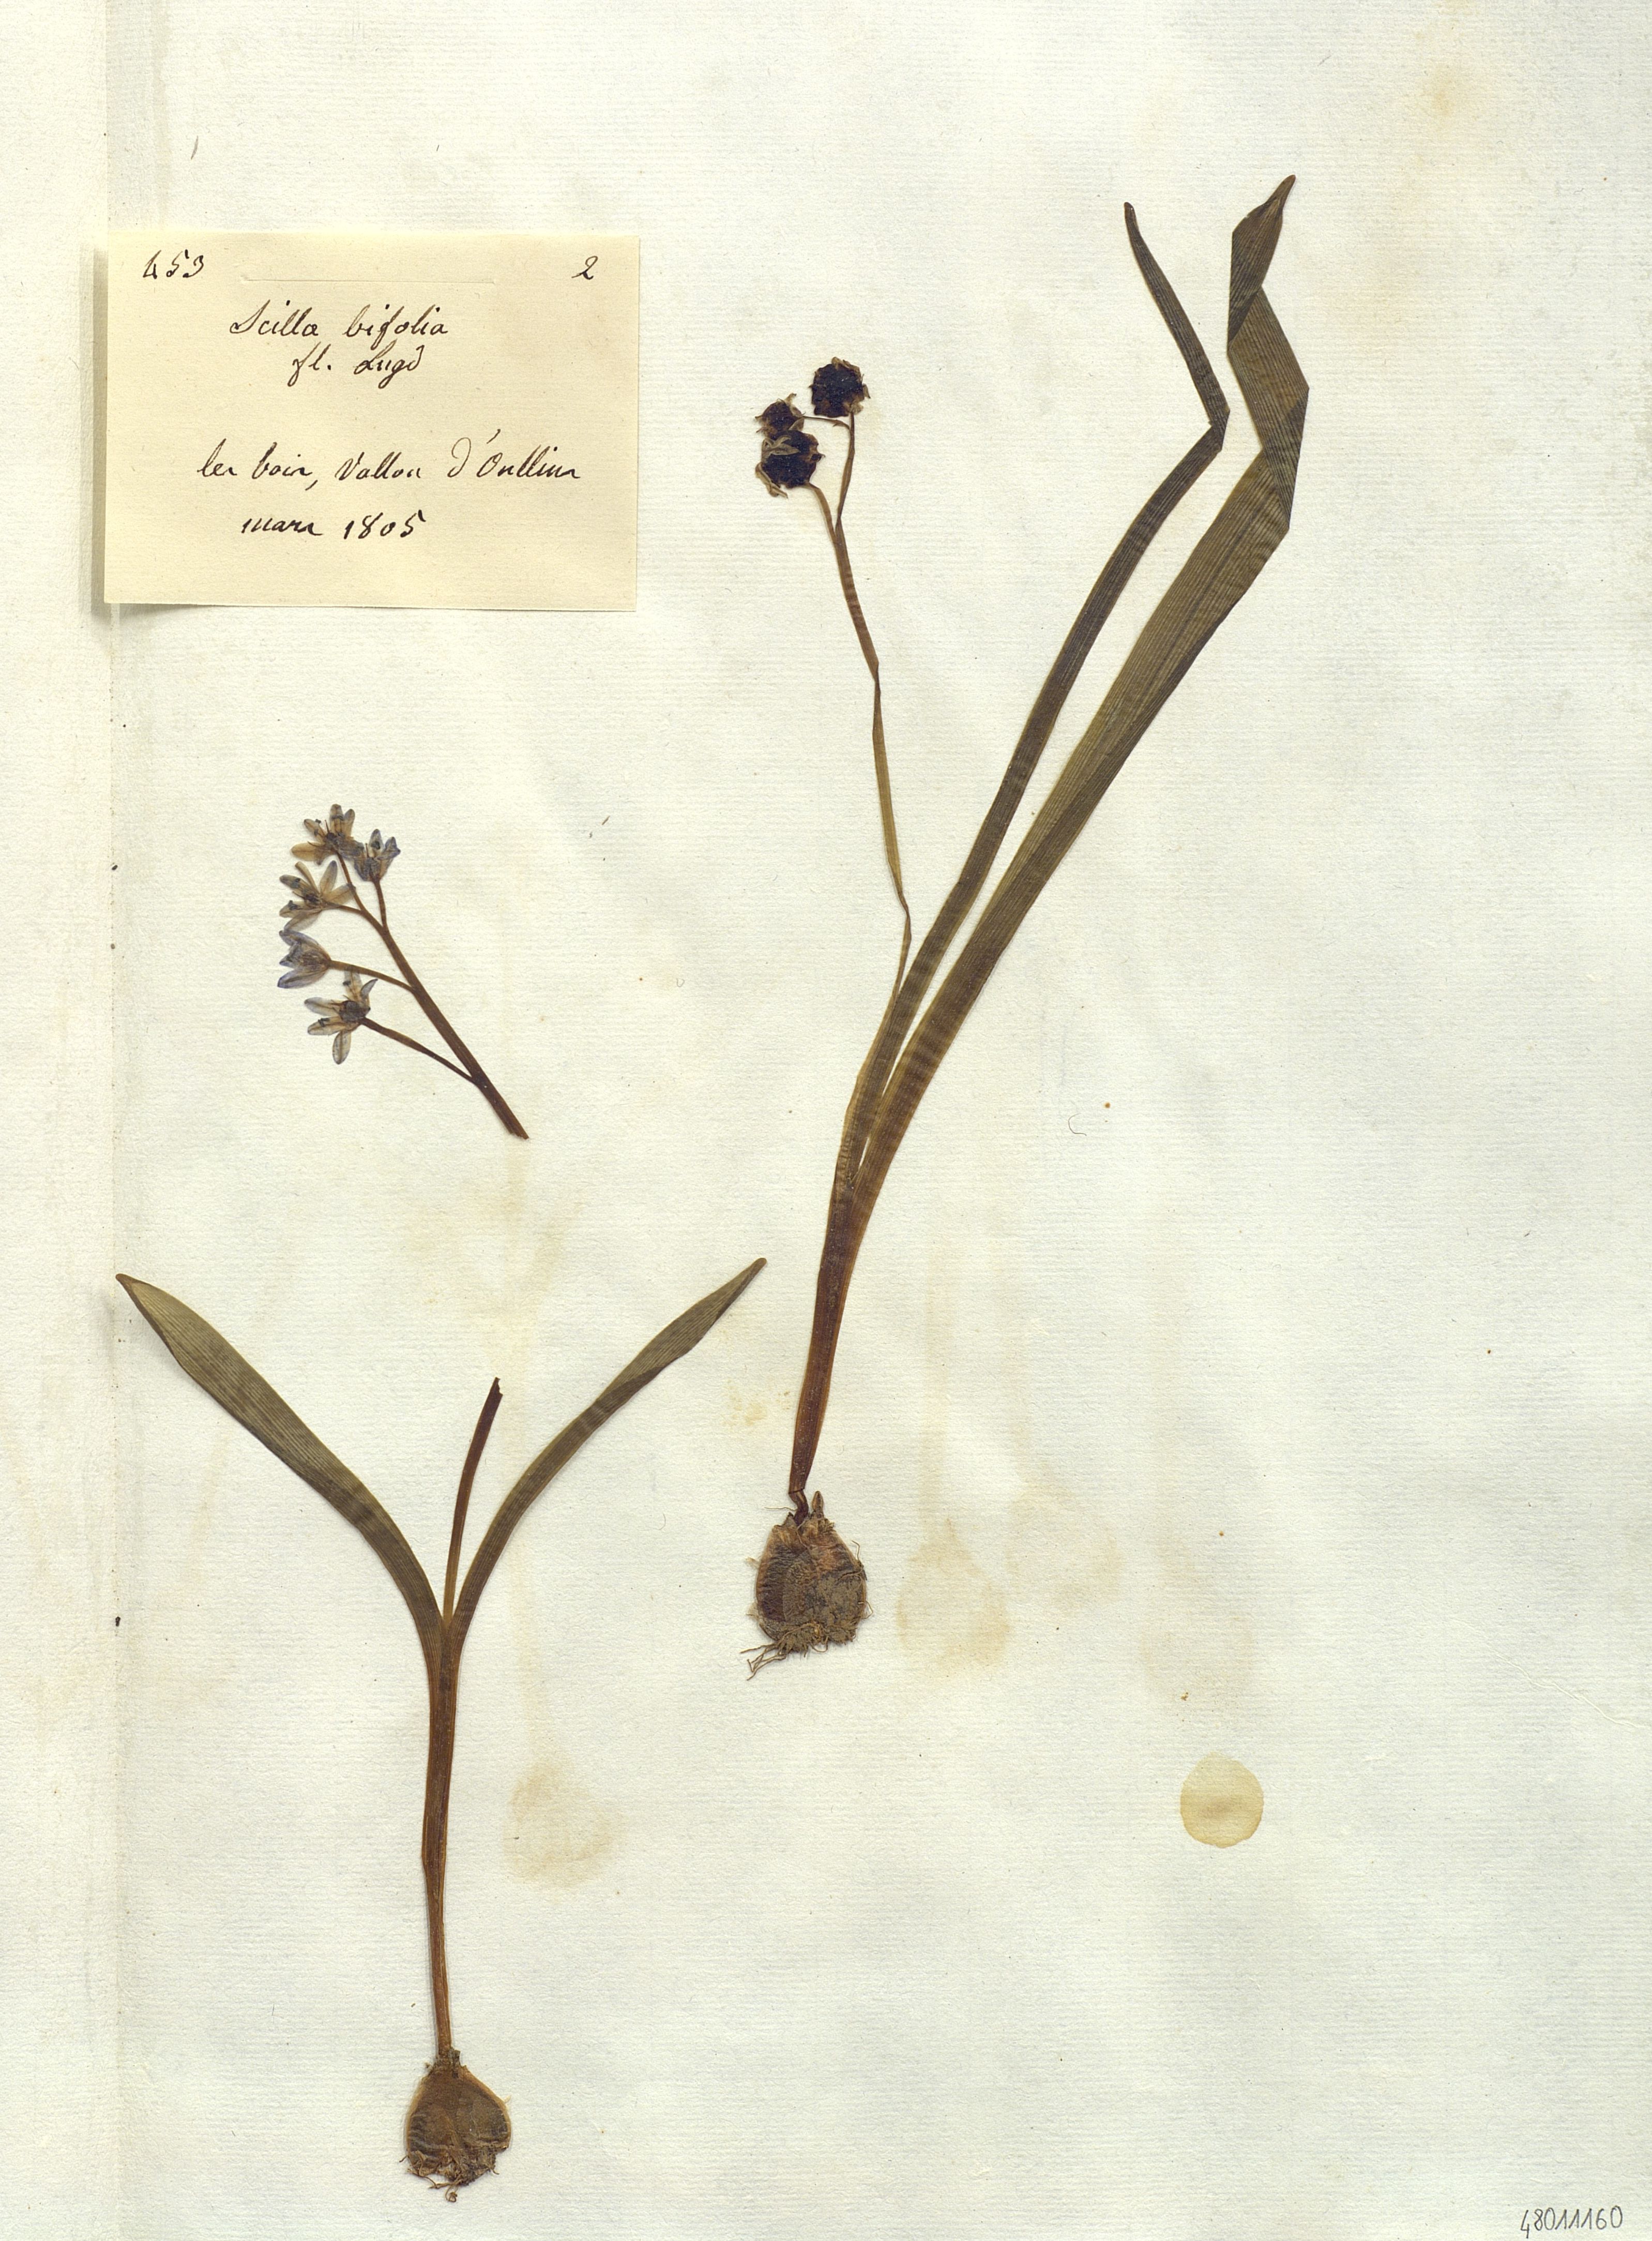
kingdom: Plantae
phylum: Tracheophyta
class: Liliopsida
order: Liliales
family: Liliaceae
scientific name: Liliaceae
